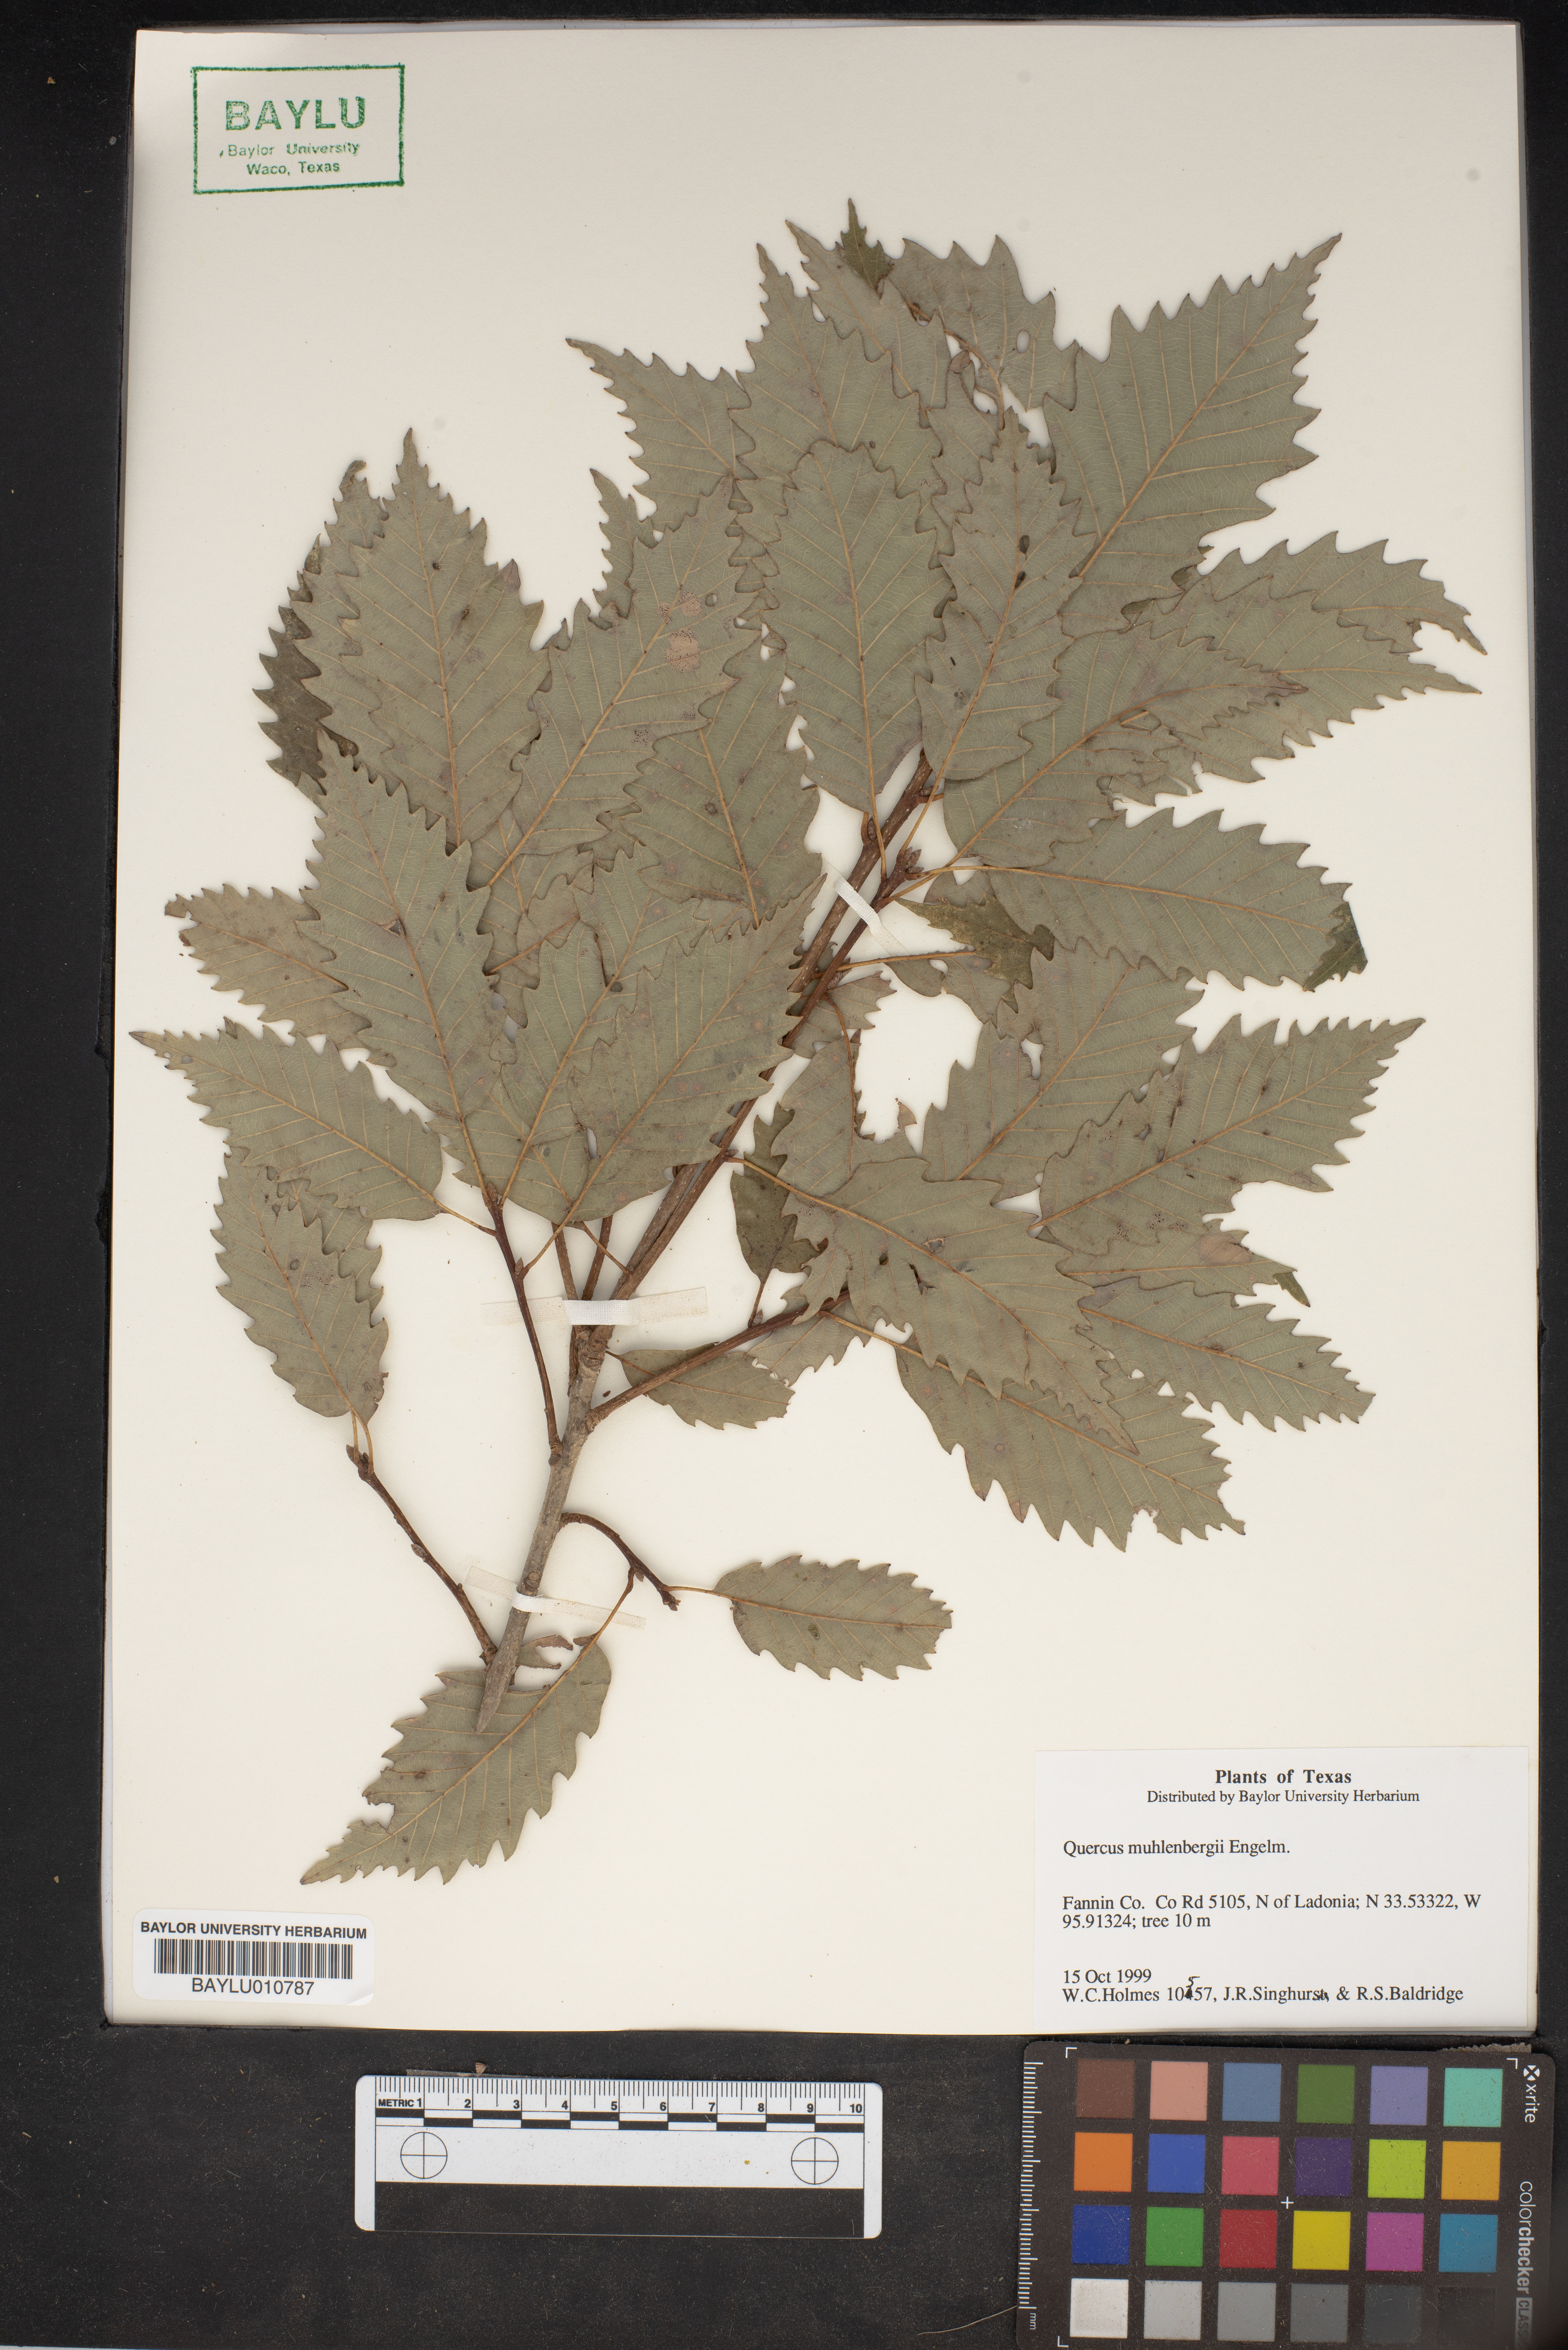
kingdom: Plantae
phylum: Tracheophyta
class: Magnoliopsida
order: Fagales
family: Fagaceae
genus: Quercus
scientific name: Quercus muehlenbergii
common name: Chinkapin oak
